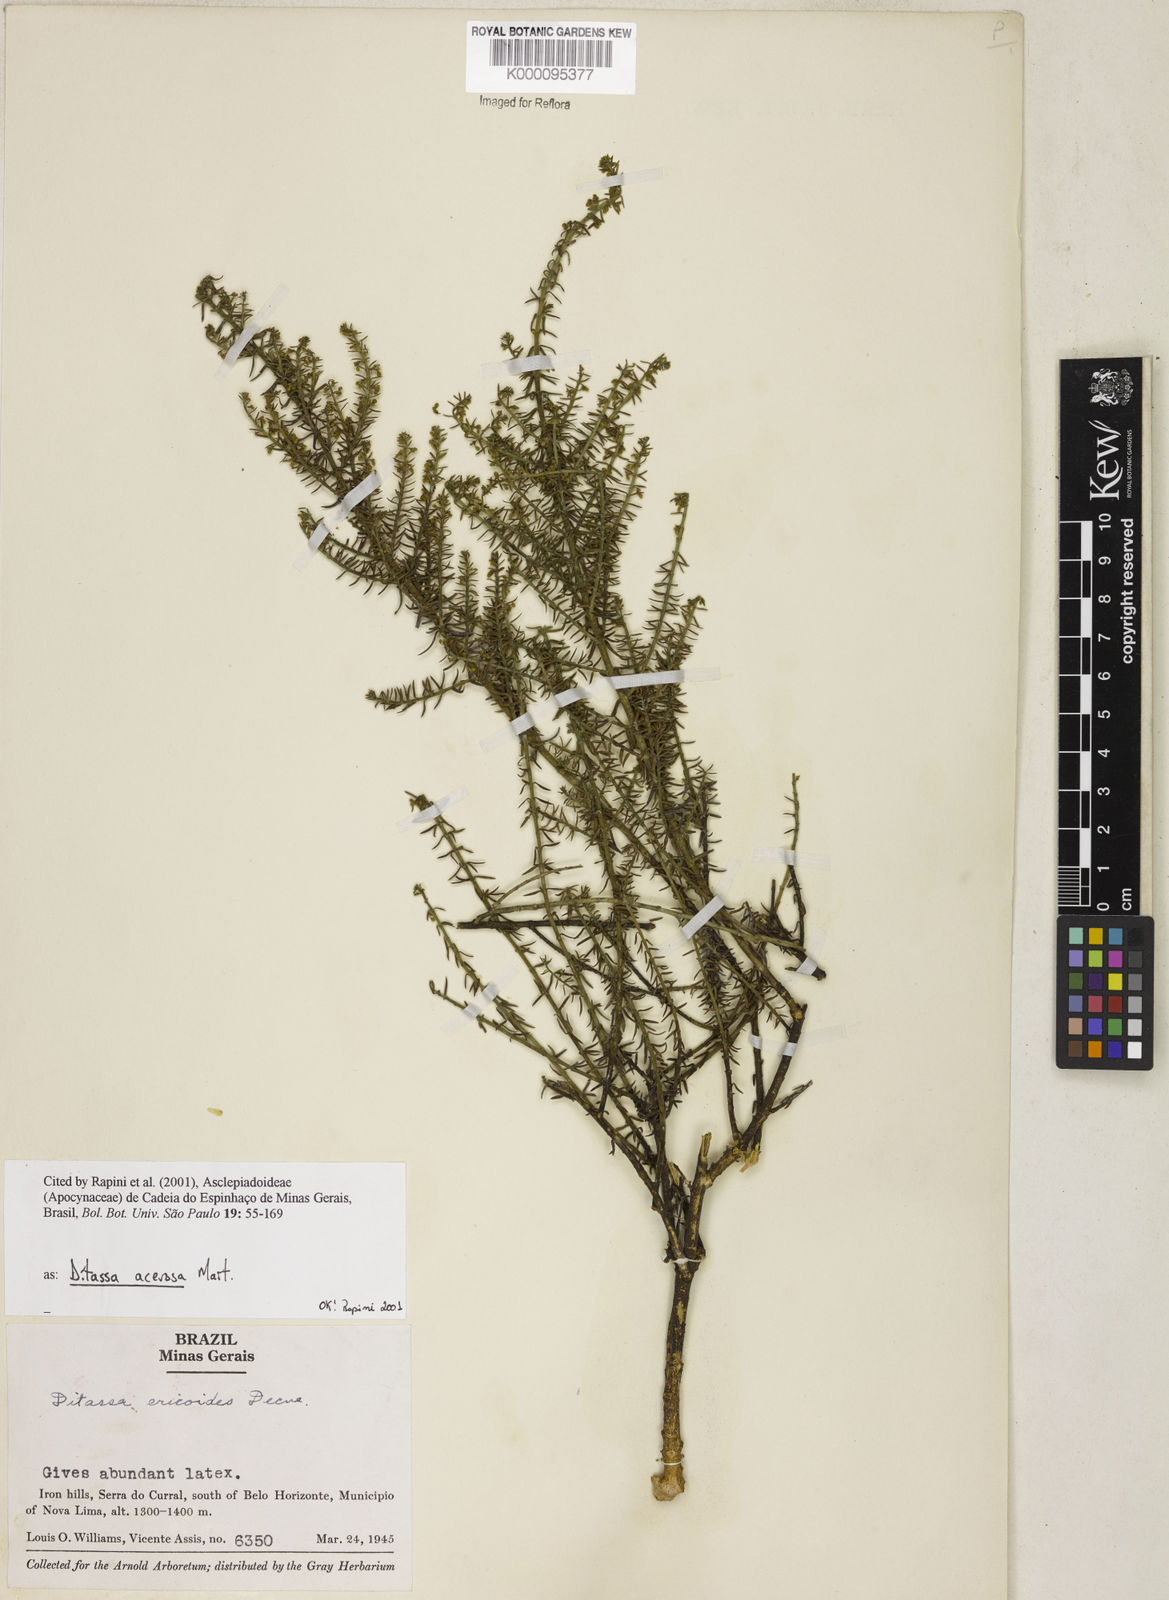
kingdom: Plantae
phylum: Tracheophyta
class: Magnoliopsida
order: Gentianales
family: Apocynaceae
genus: Minaria
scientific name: Minaria acerosa
